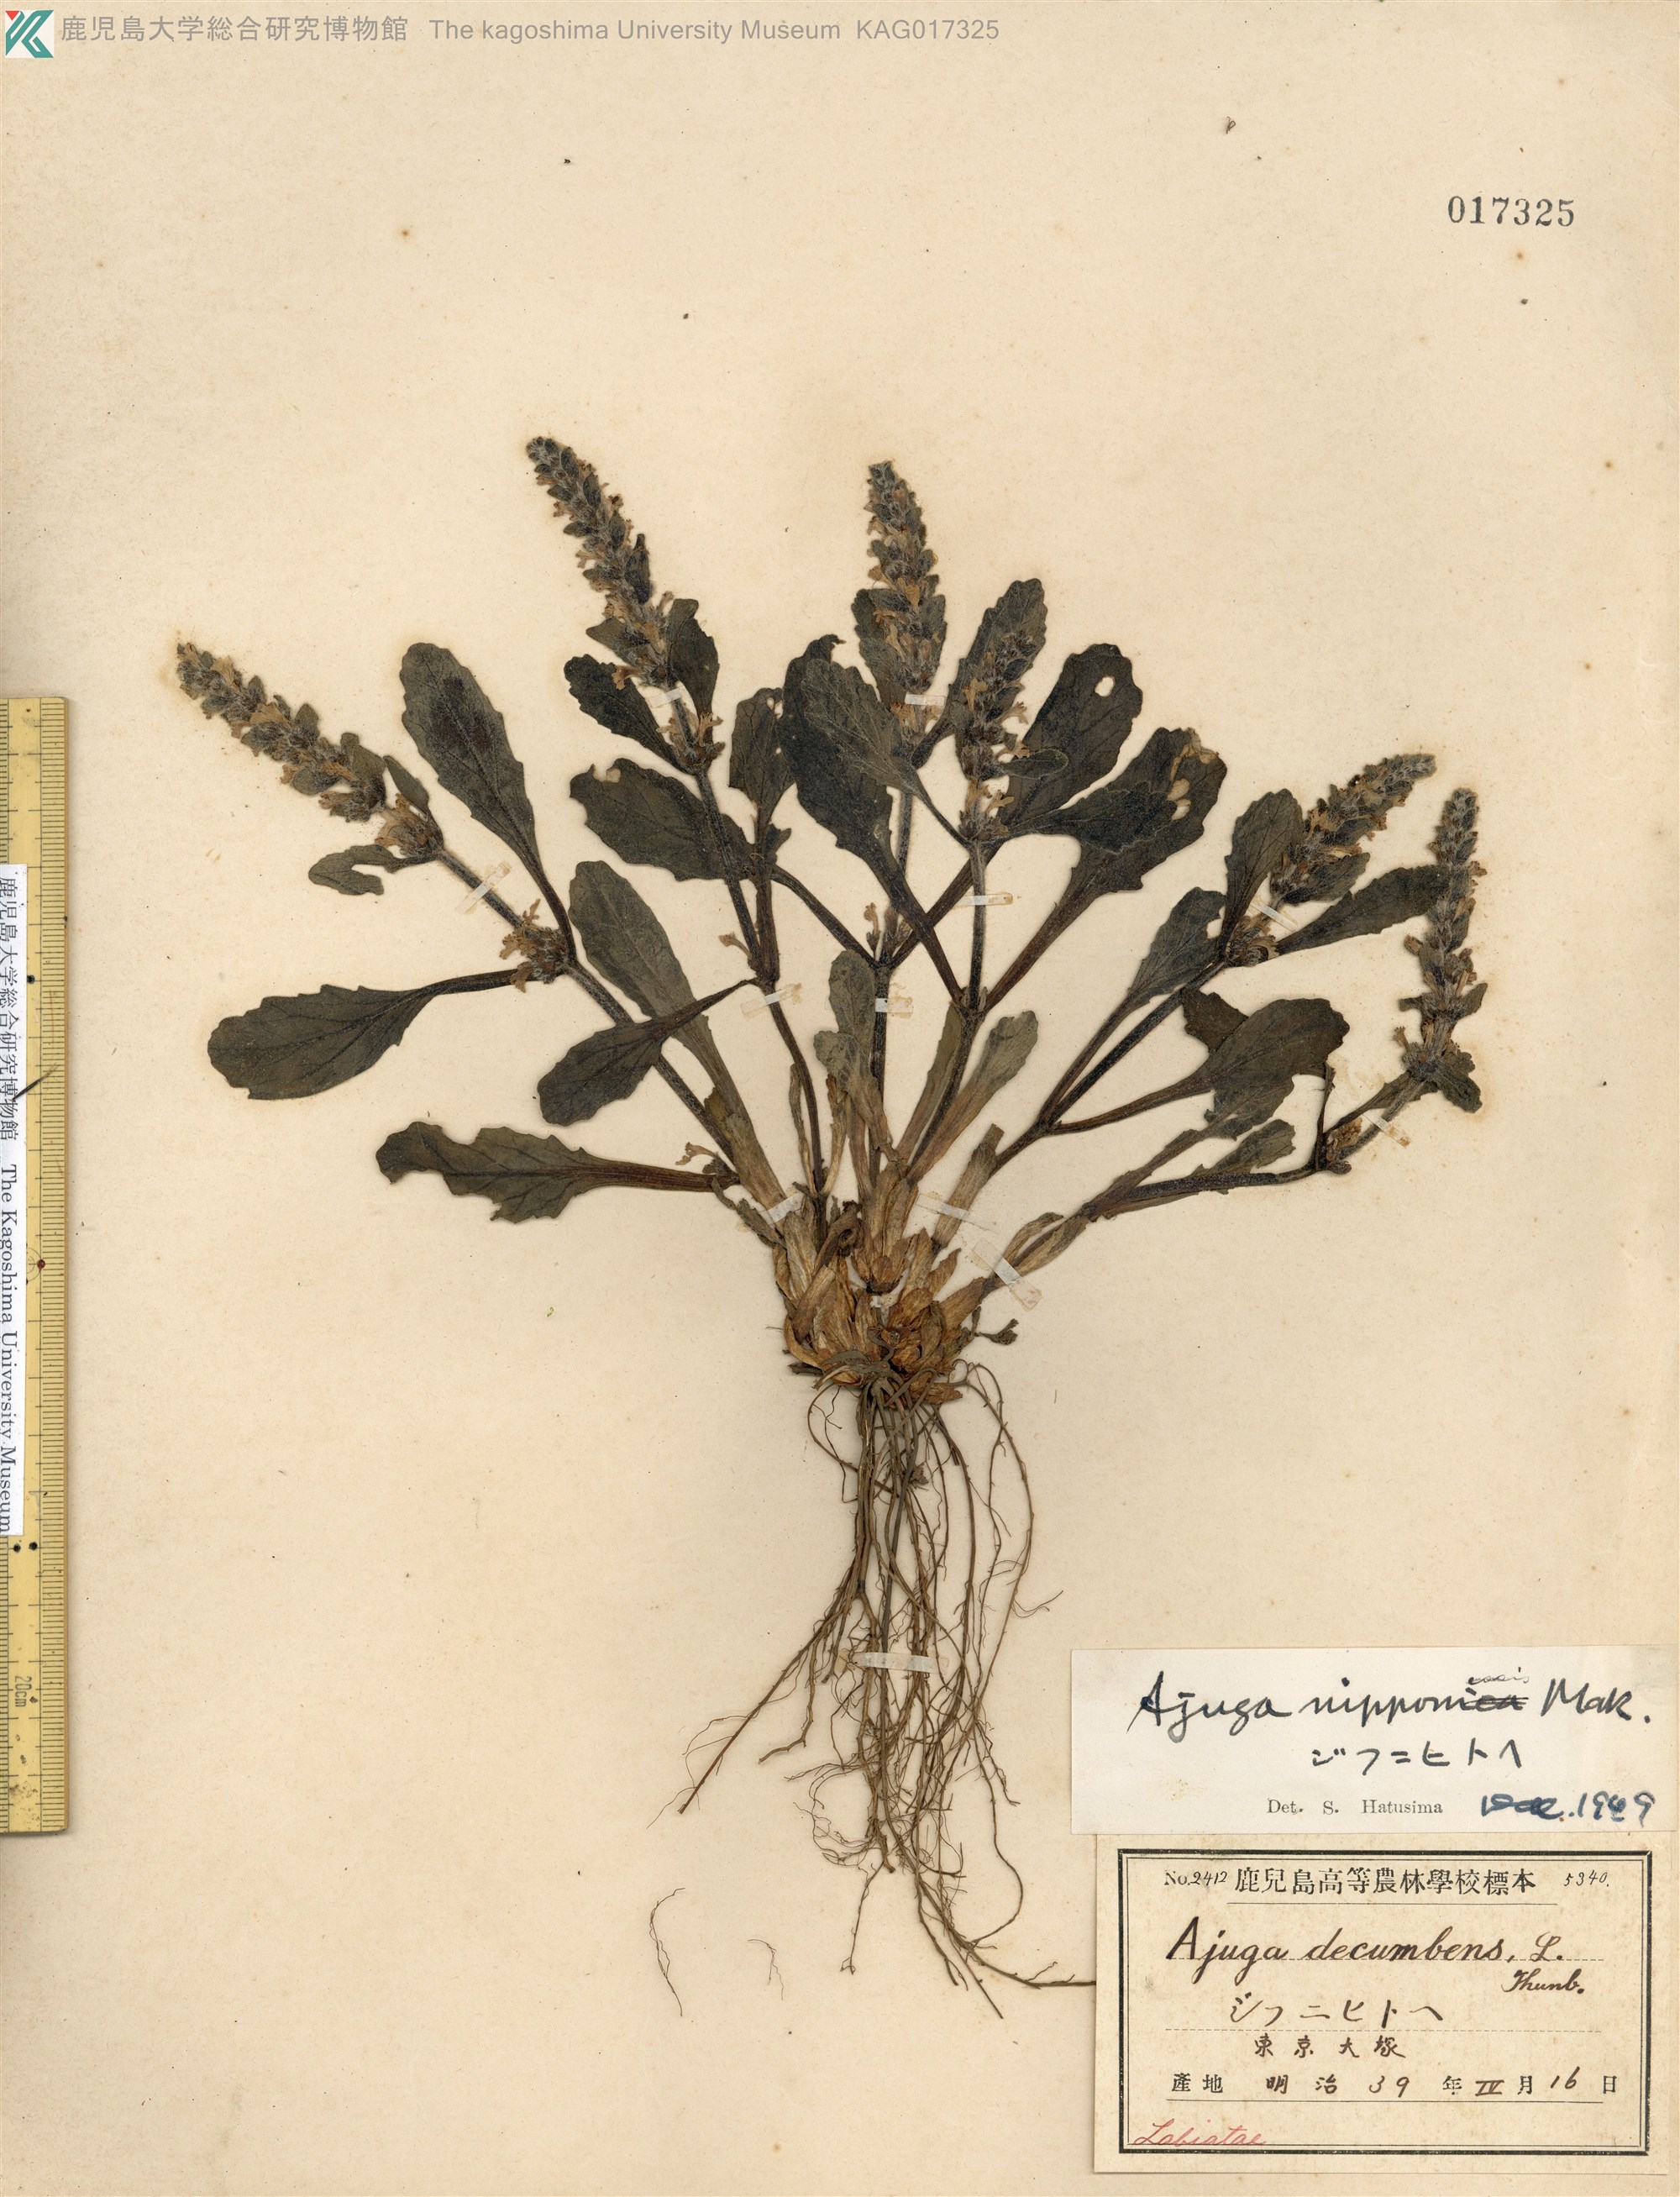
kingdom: Plantae
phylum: Tracheophyta
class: Magnoliopsida
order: Lamiales
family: Lamiaceae
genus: Ajuga
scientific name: Ajuga nipponensis
